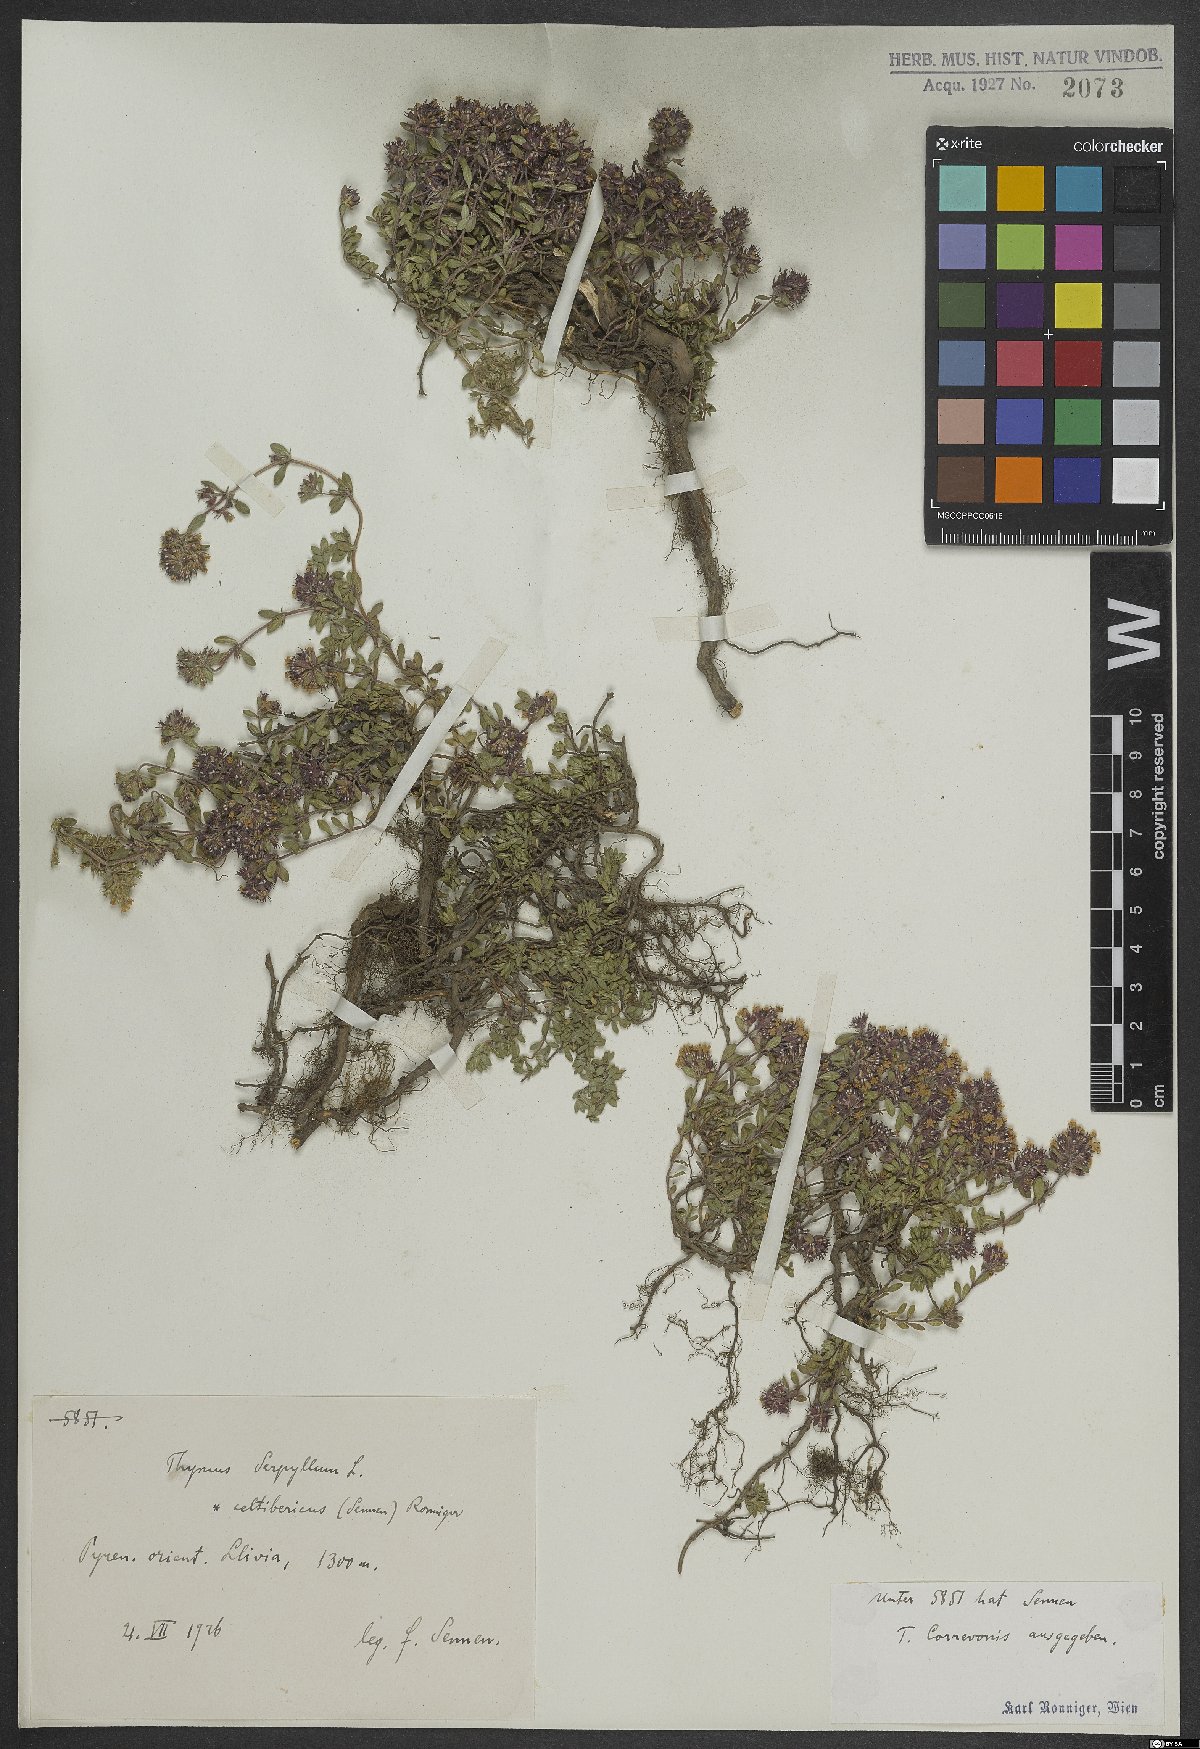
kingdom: Plantae
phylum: Tracheophyta
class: Magnoliopsida
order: Lamiales
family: Lamiaceae
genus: Thymus
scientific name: Thymus serpyllum
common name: Breckland thyme
